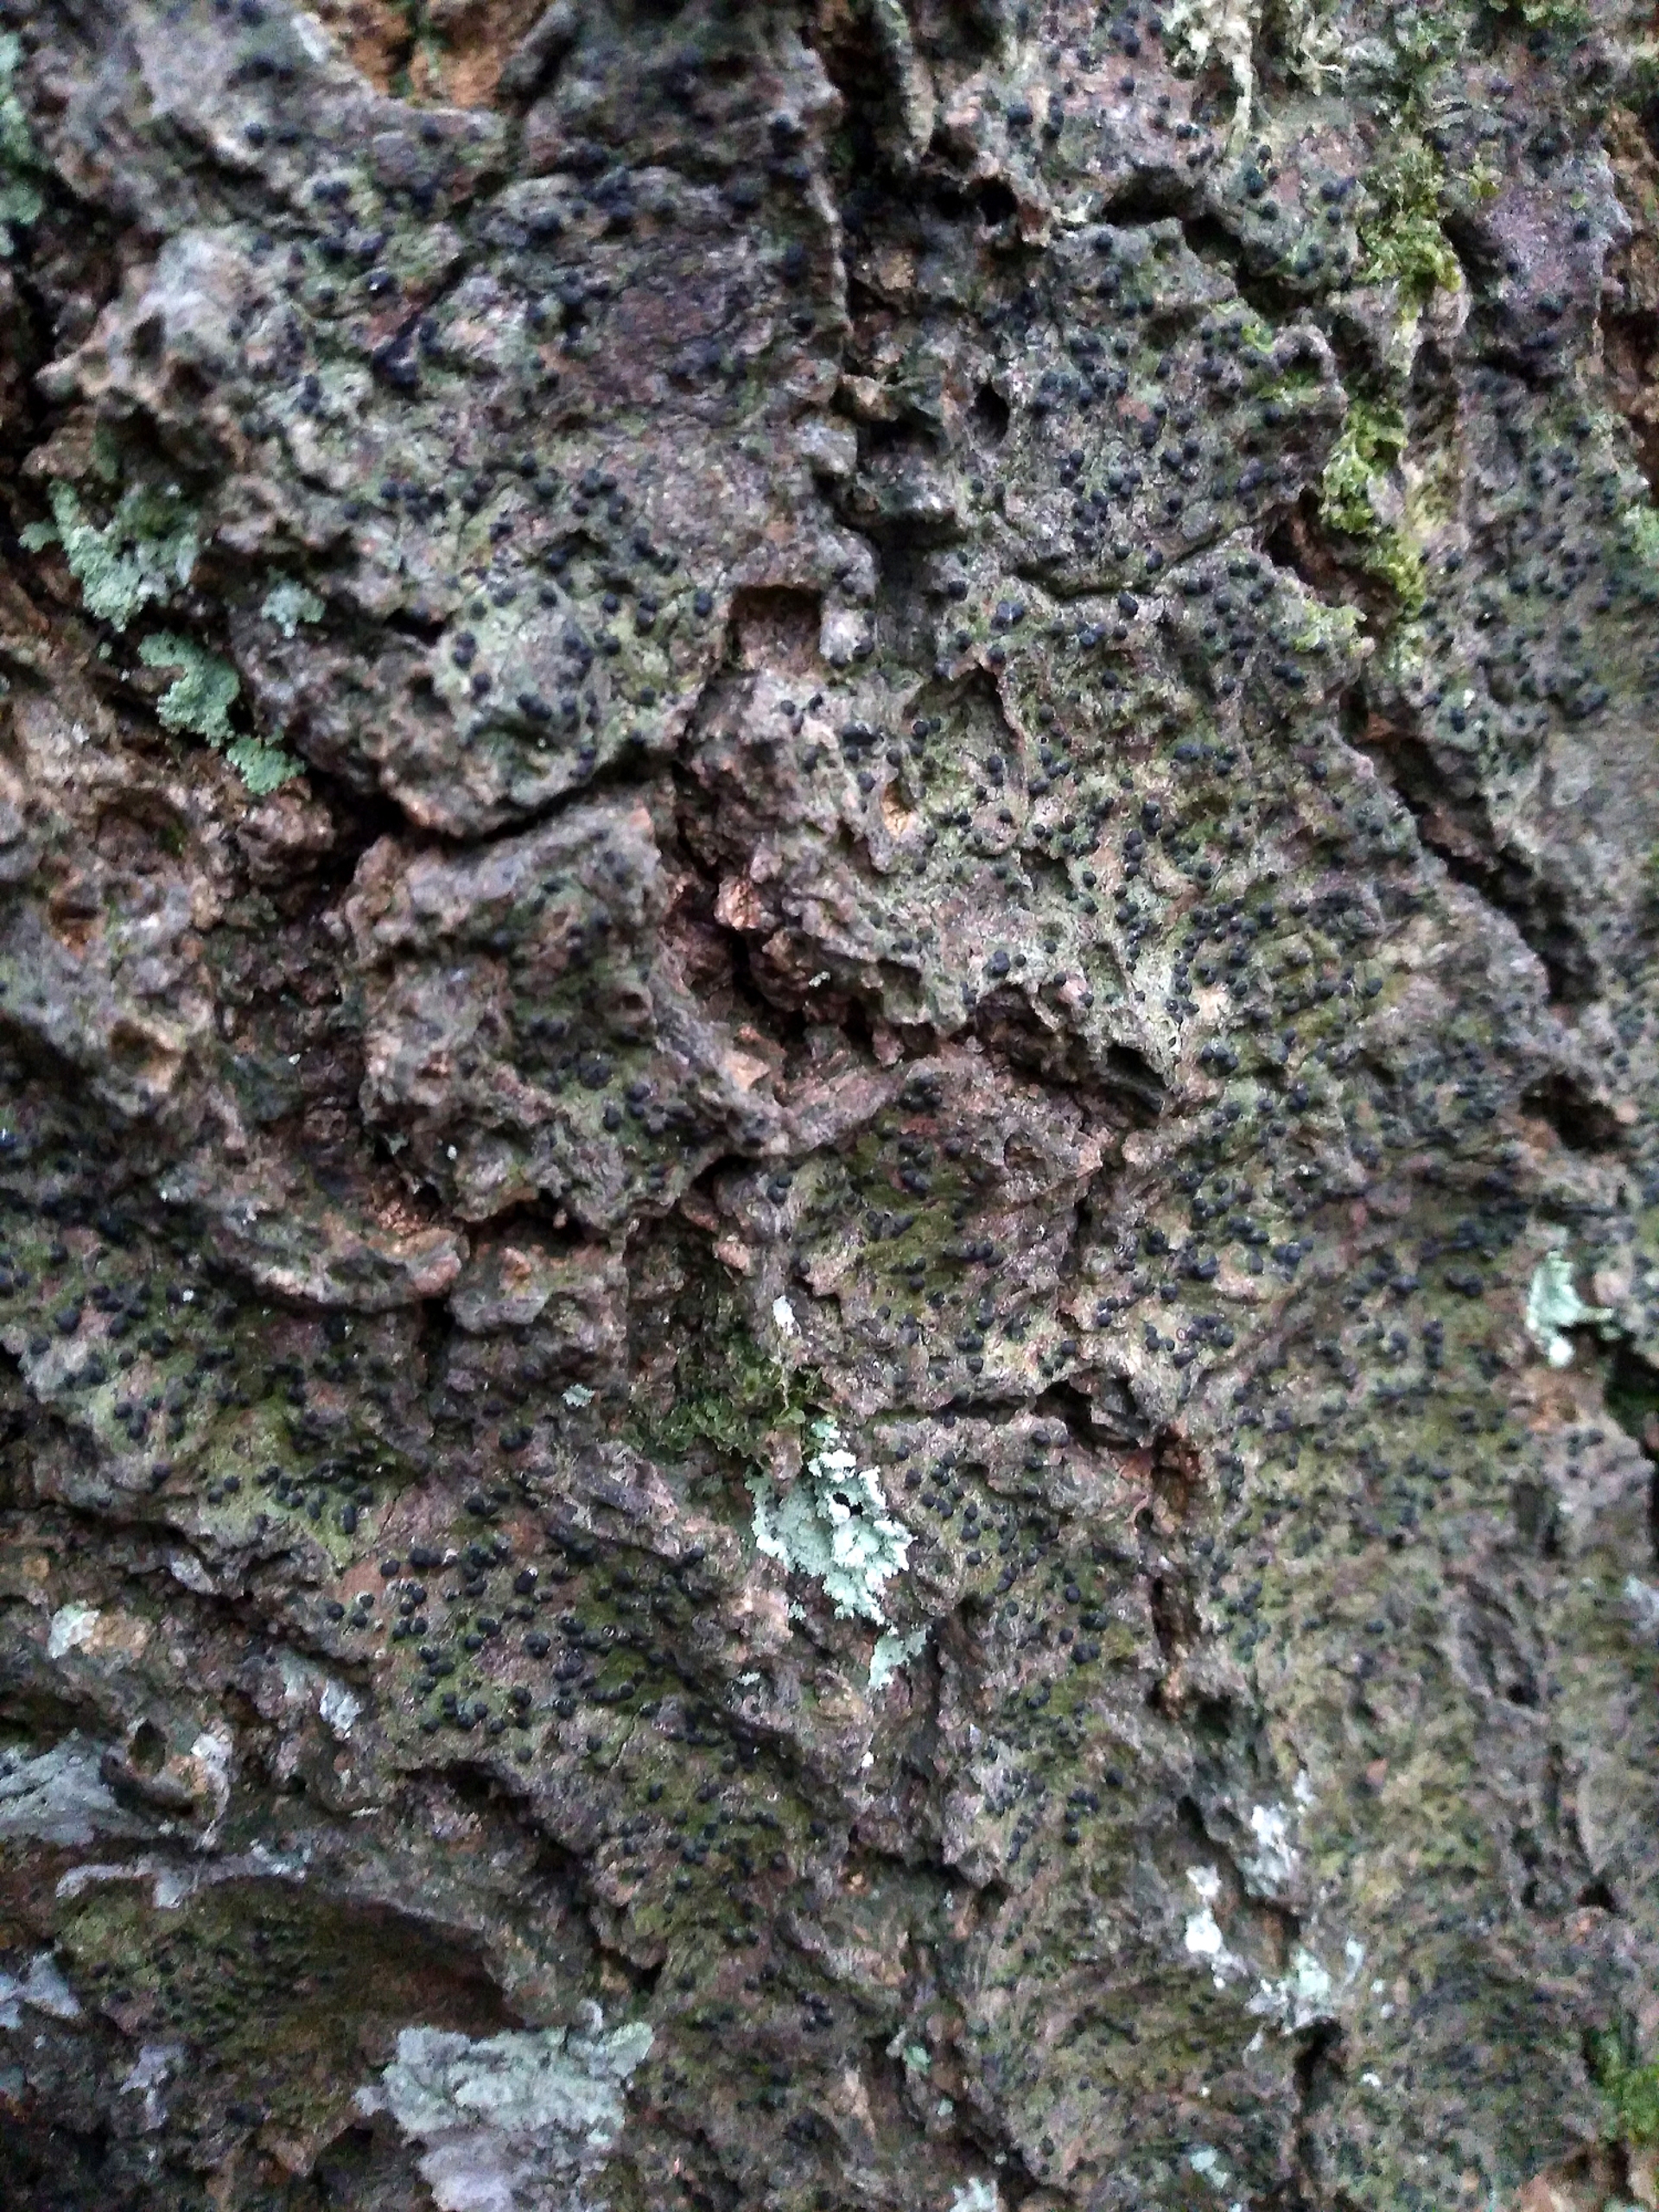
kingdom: Fungi
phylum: Ascomycota
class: Eurotiomycetes
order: Pyrenulales
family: Pyrenulaceae
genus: Pyrenula
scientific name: Pyrenula nitida
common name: Glinsende kernelav
